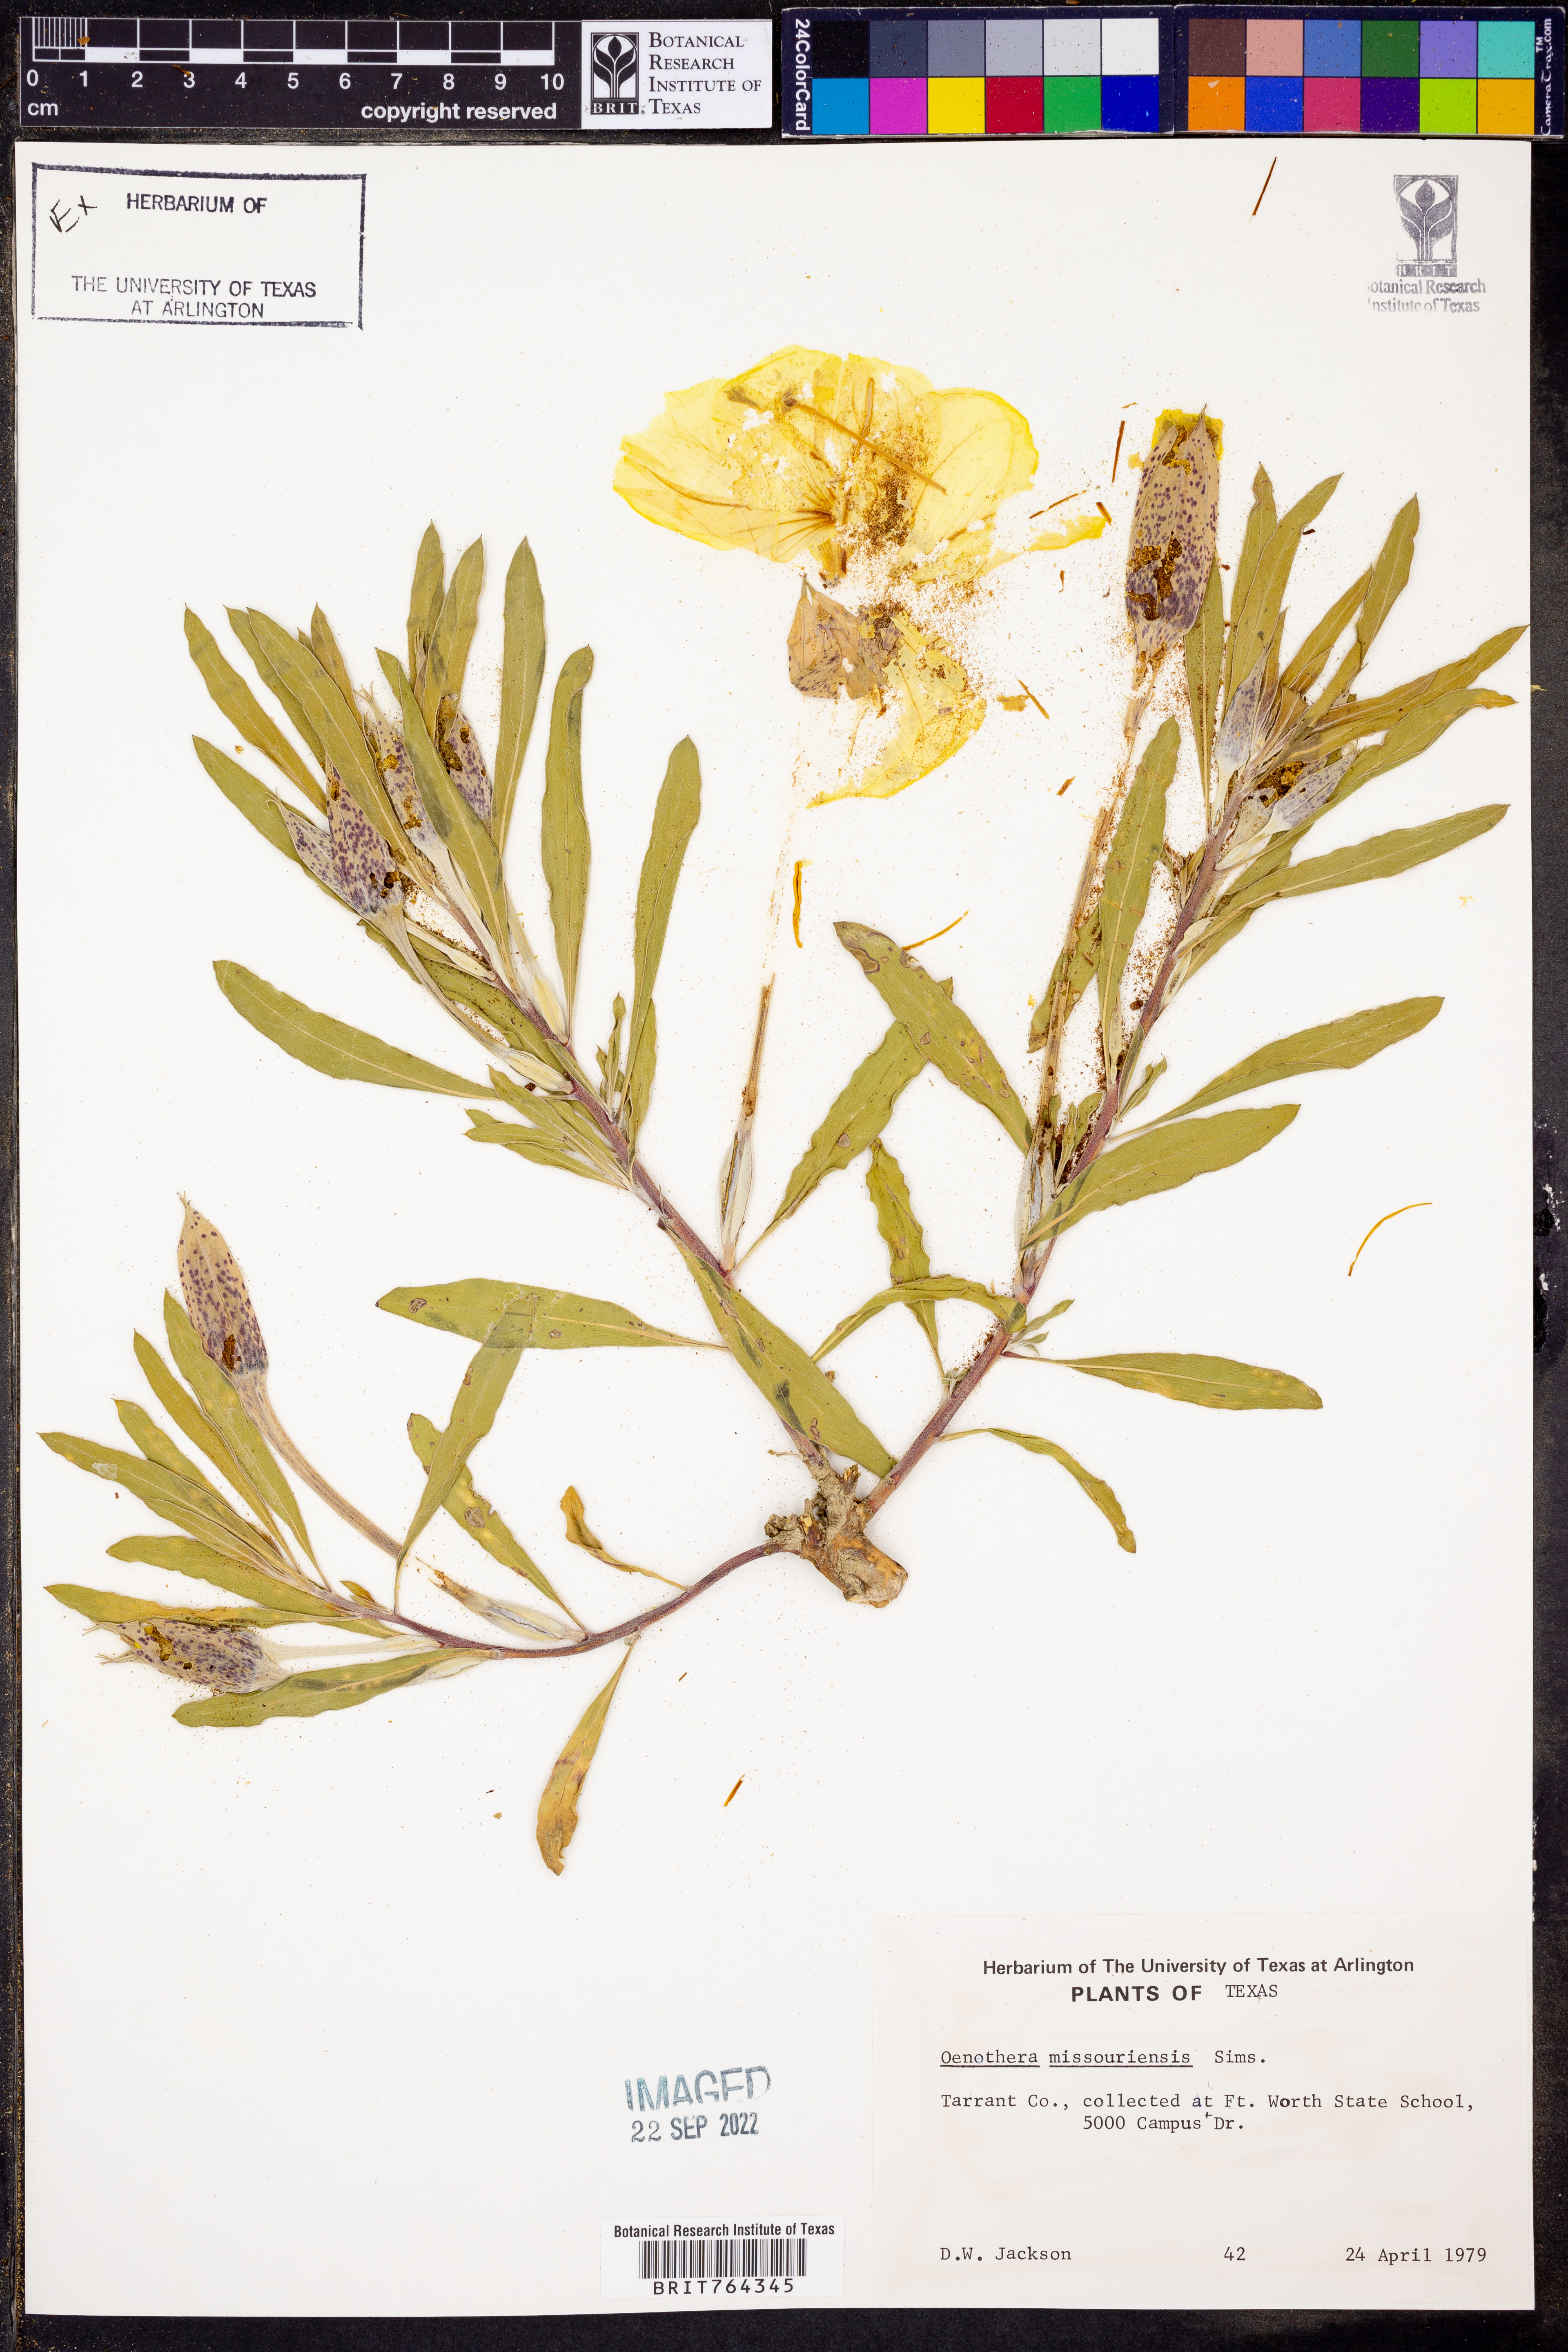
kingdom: Plantae
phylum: Tracheophyta
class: Magnoliopsida
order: Myrtales
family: Onagraceae
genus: Oenothera
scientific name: Oenothera macrocarpa
